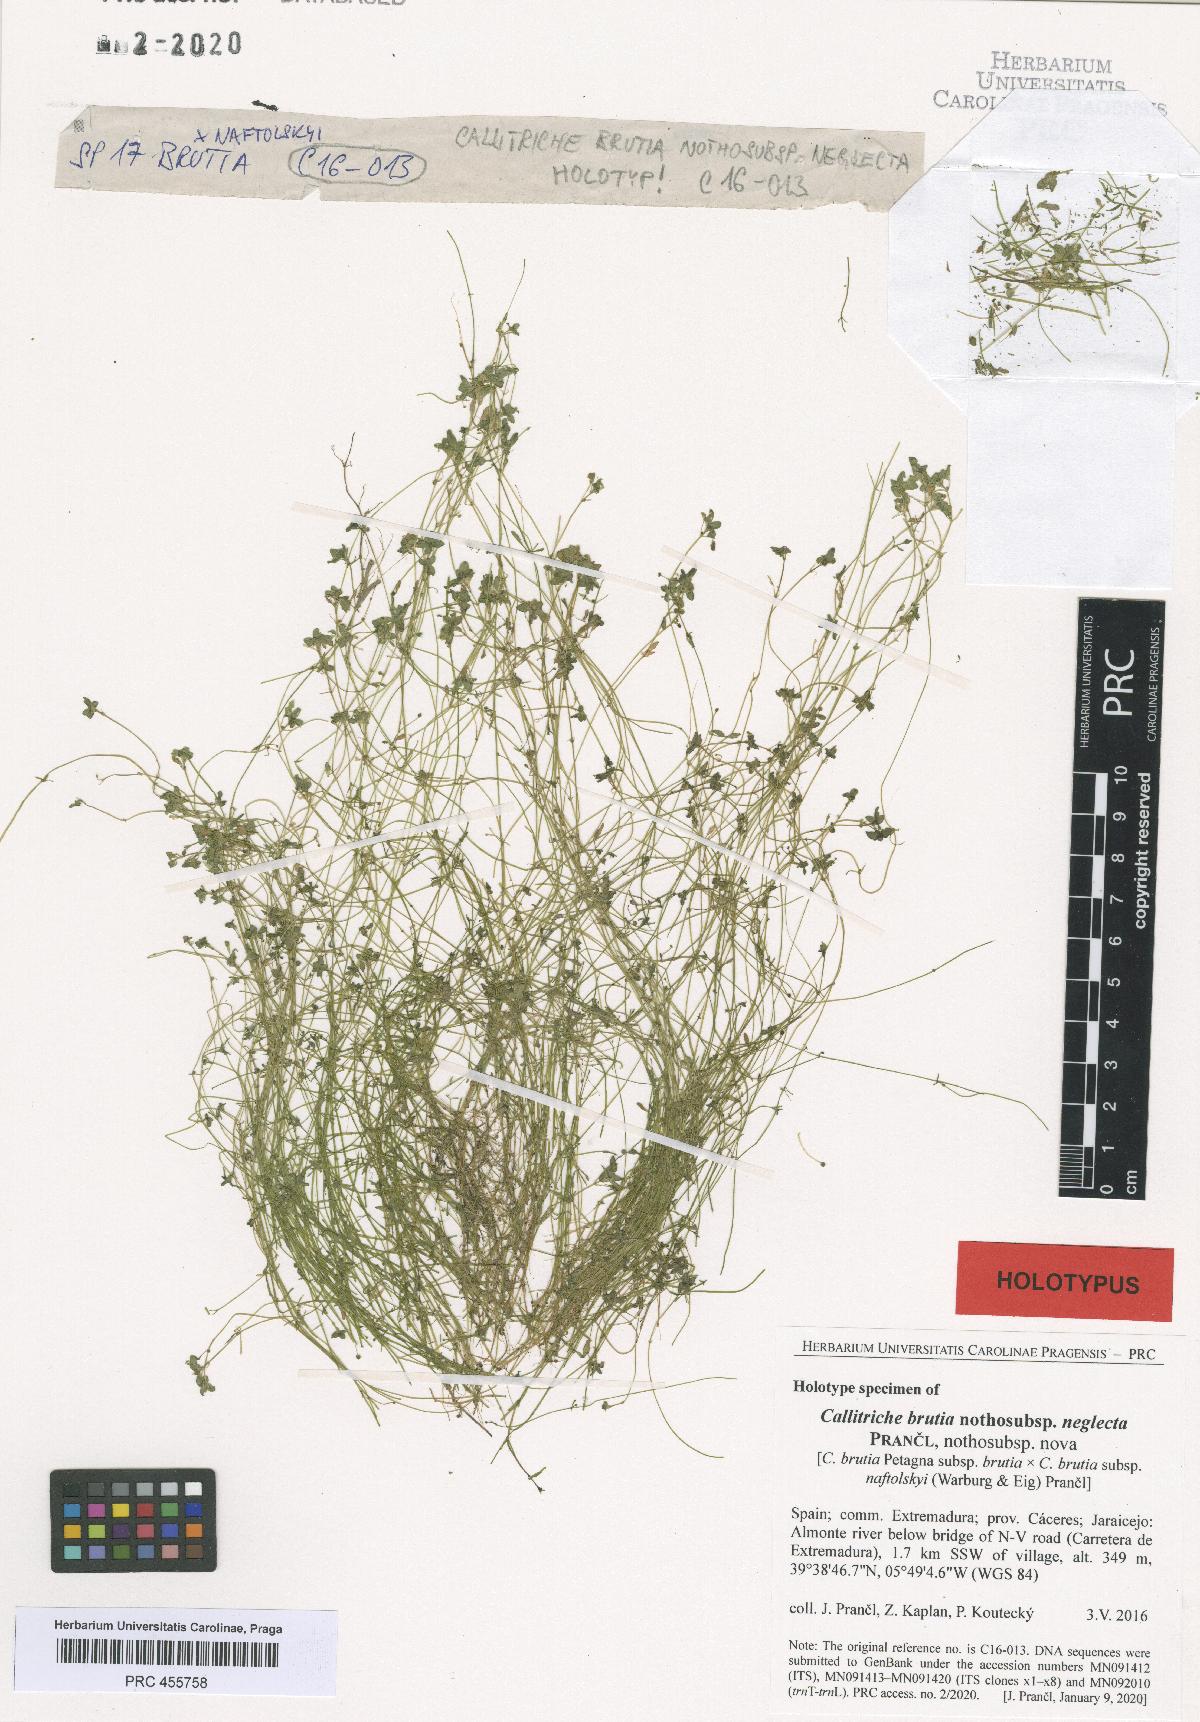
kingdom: Plantae
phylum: Tracheophyta
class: Magnoliopsida
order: Lamiales
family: Plantaginaceae
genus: Callitriche
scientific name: Callitriche brutia
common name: Pedunculate water-starwort
